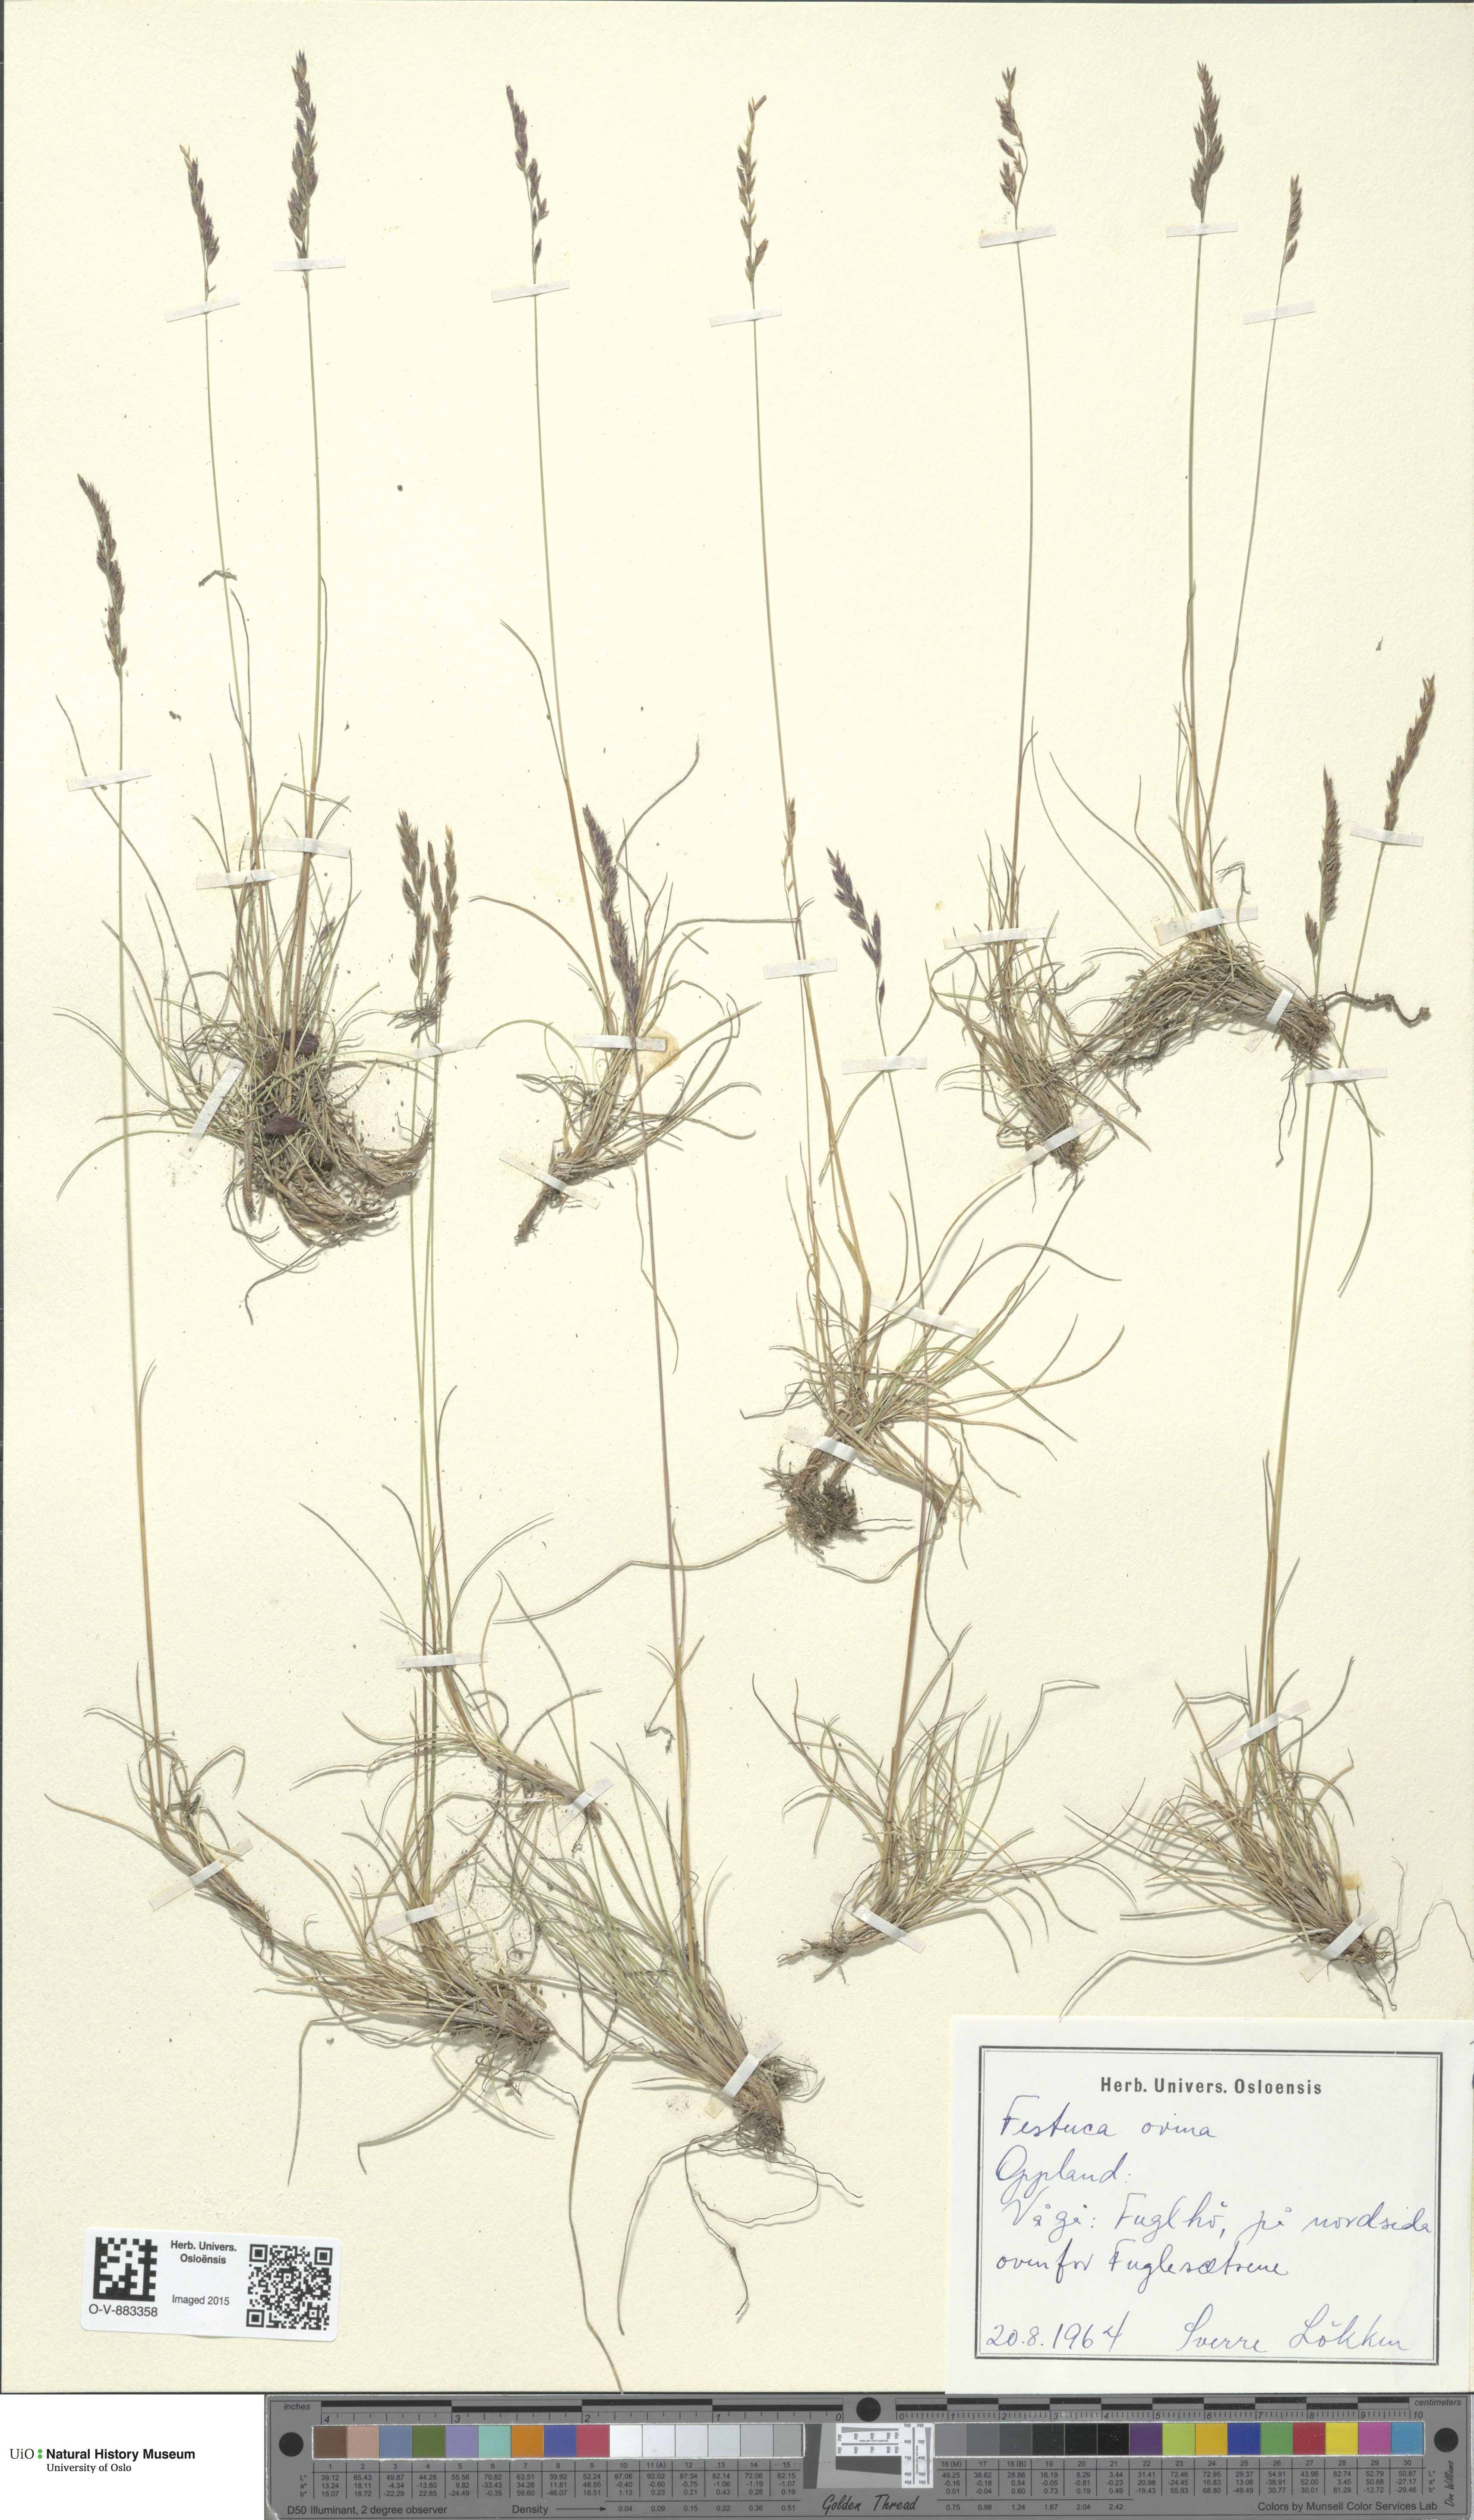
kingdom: Plantae
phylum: Tracheophyta
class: Liliopsida
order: Poales
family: Poaceae
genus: Festuca
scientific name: Festuca ovina
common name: Sheep fescue
